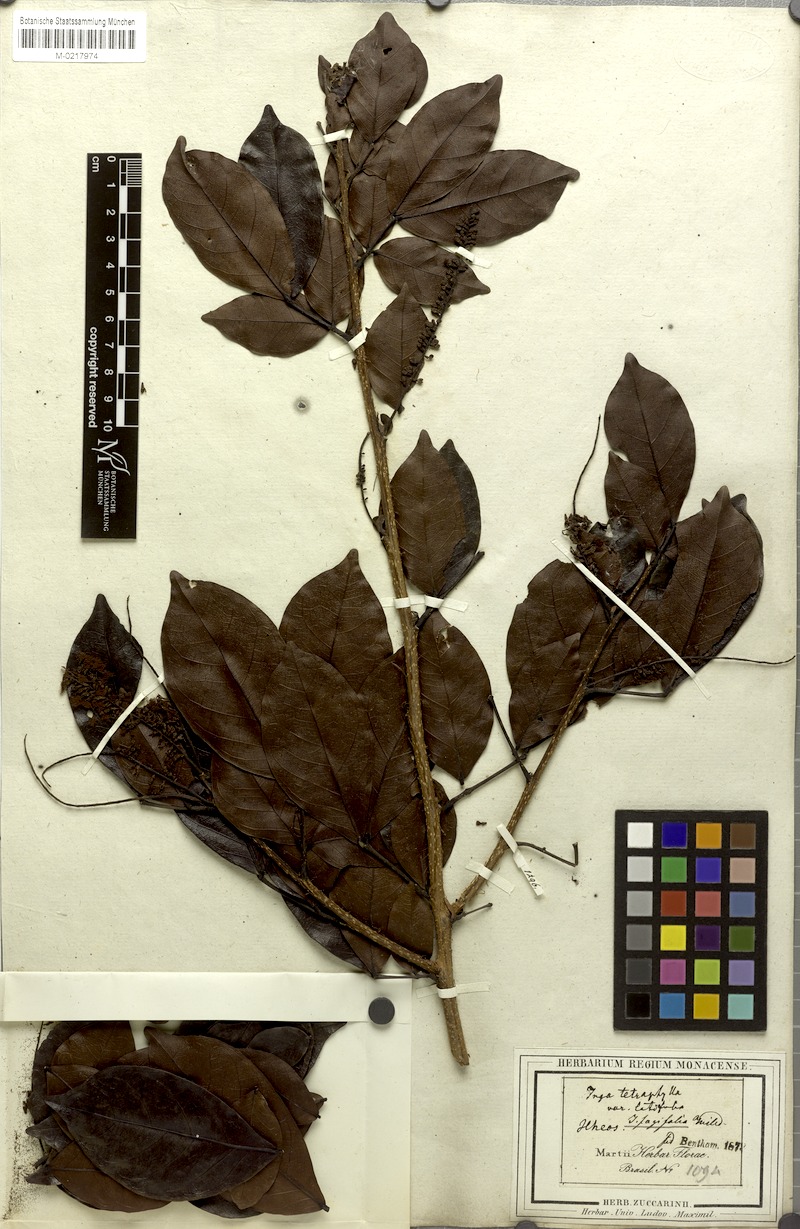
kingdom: Plantae
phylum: Tracheophyta
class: Magnoliopsida
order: Fabales
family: Fabaceae
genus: Inga
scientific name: Inga laurina
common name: Red wood
